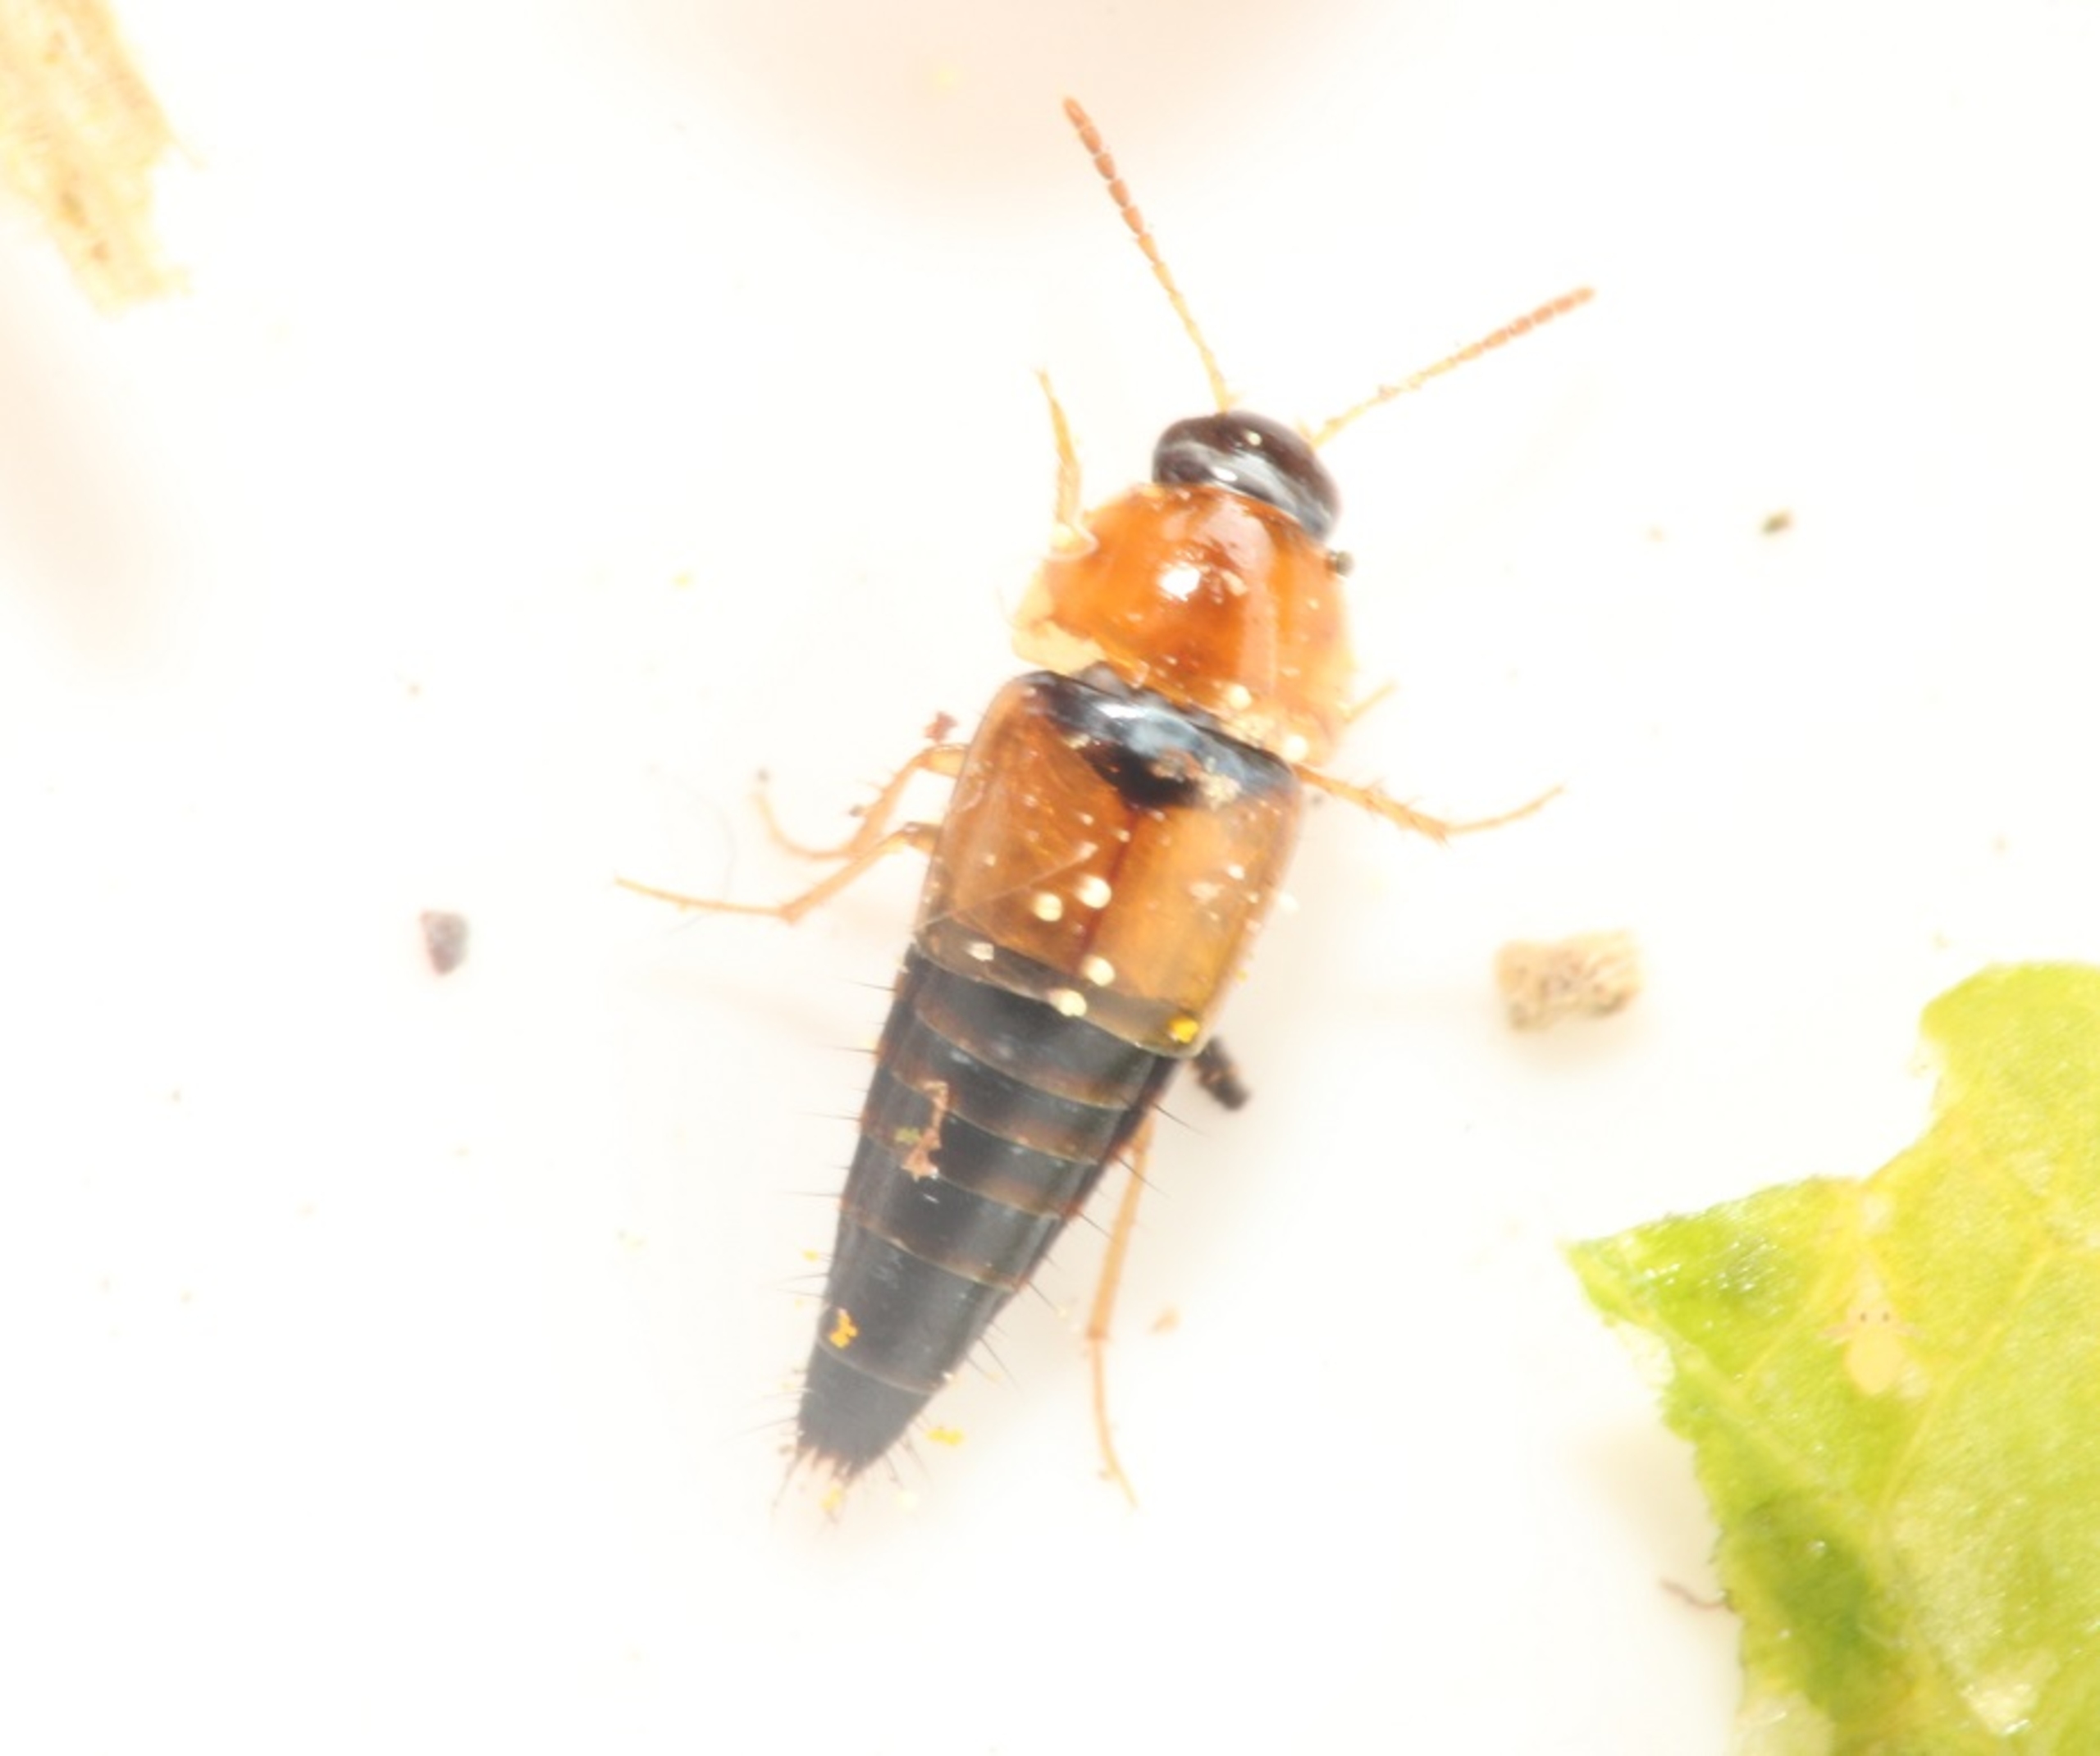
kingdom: Animalia
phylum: Arthropoda
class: Insecta
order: Coleoptera
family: Staphylinidae
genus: Tachyporus
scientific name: Tachyporus solutus
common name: Gulvinget agerrovbille
